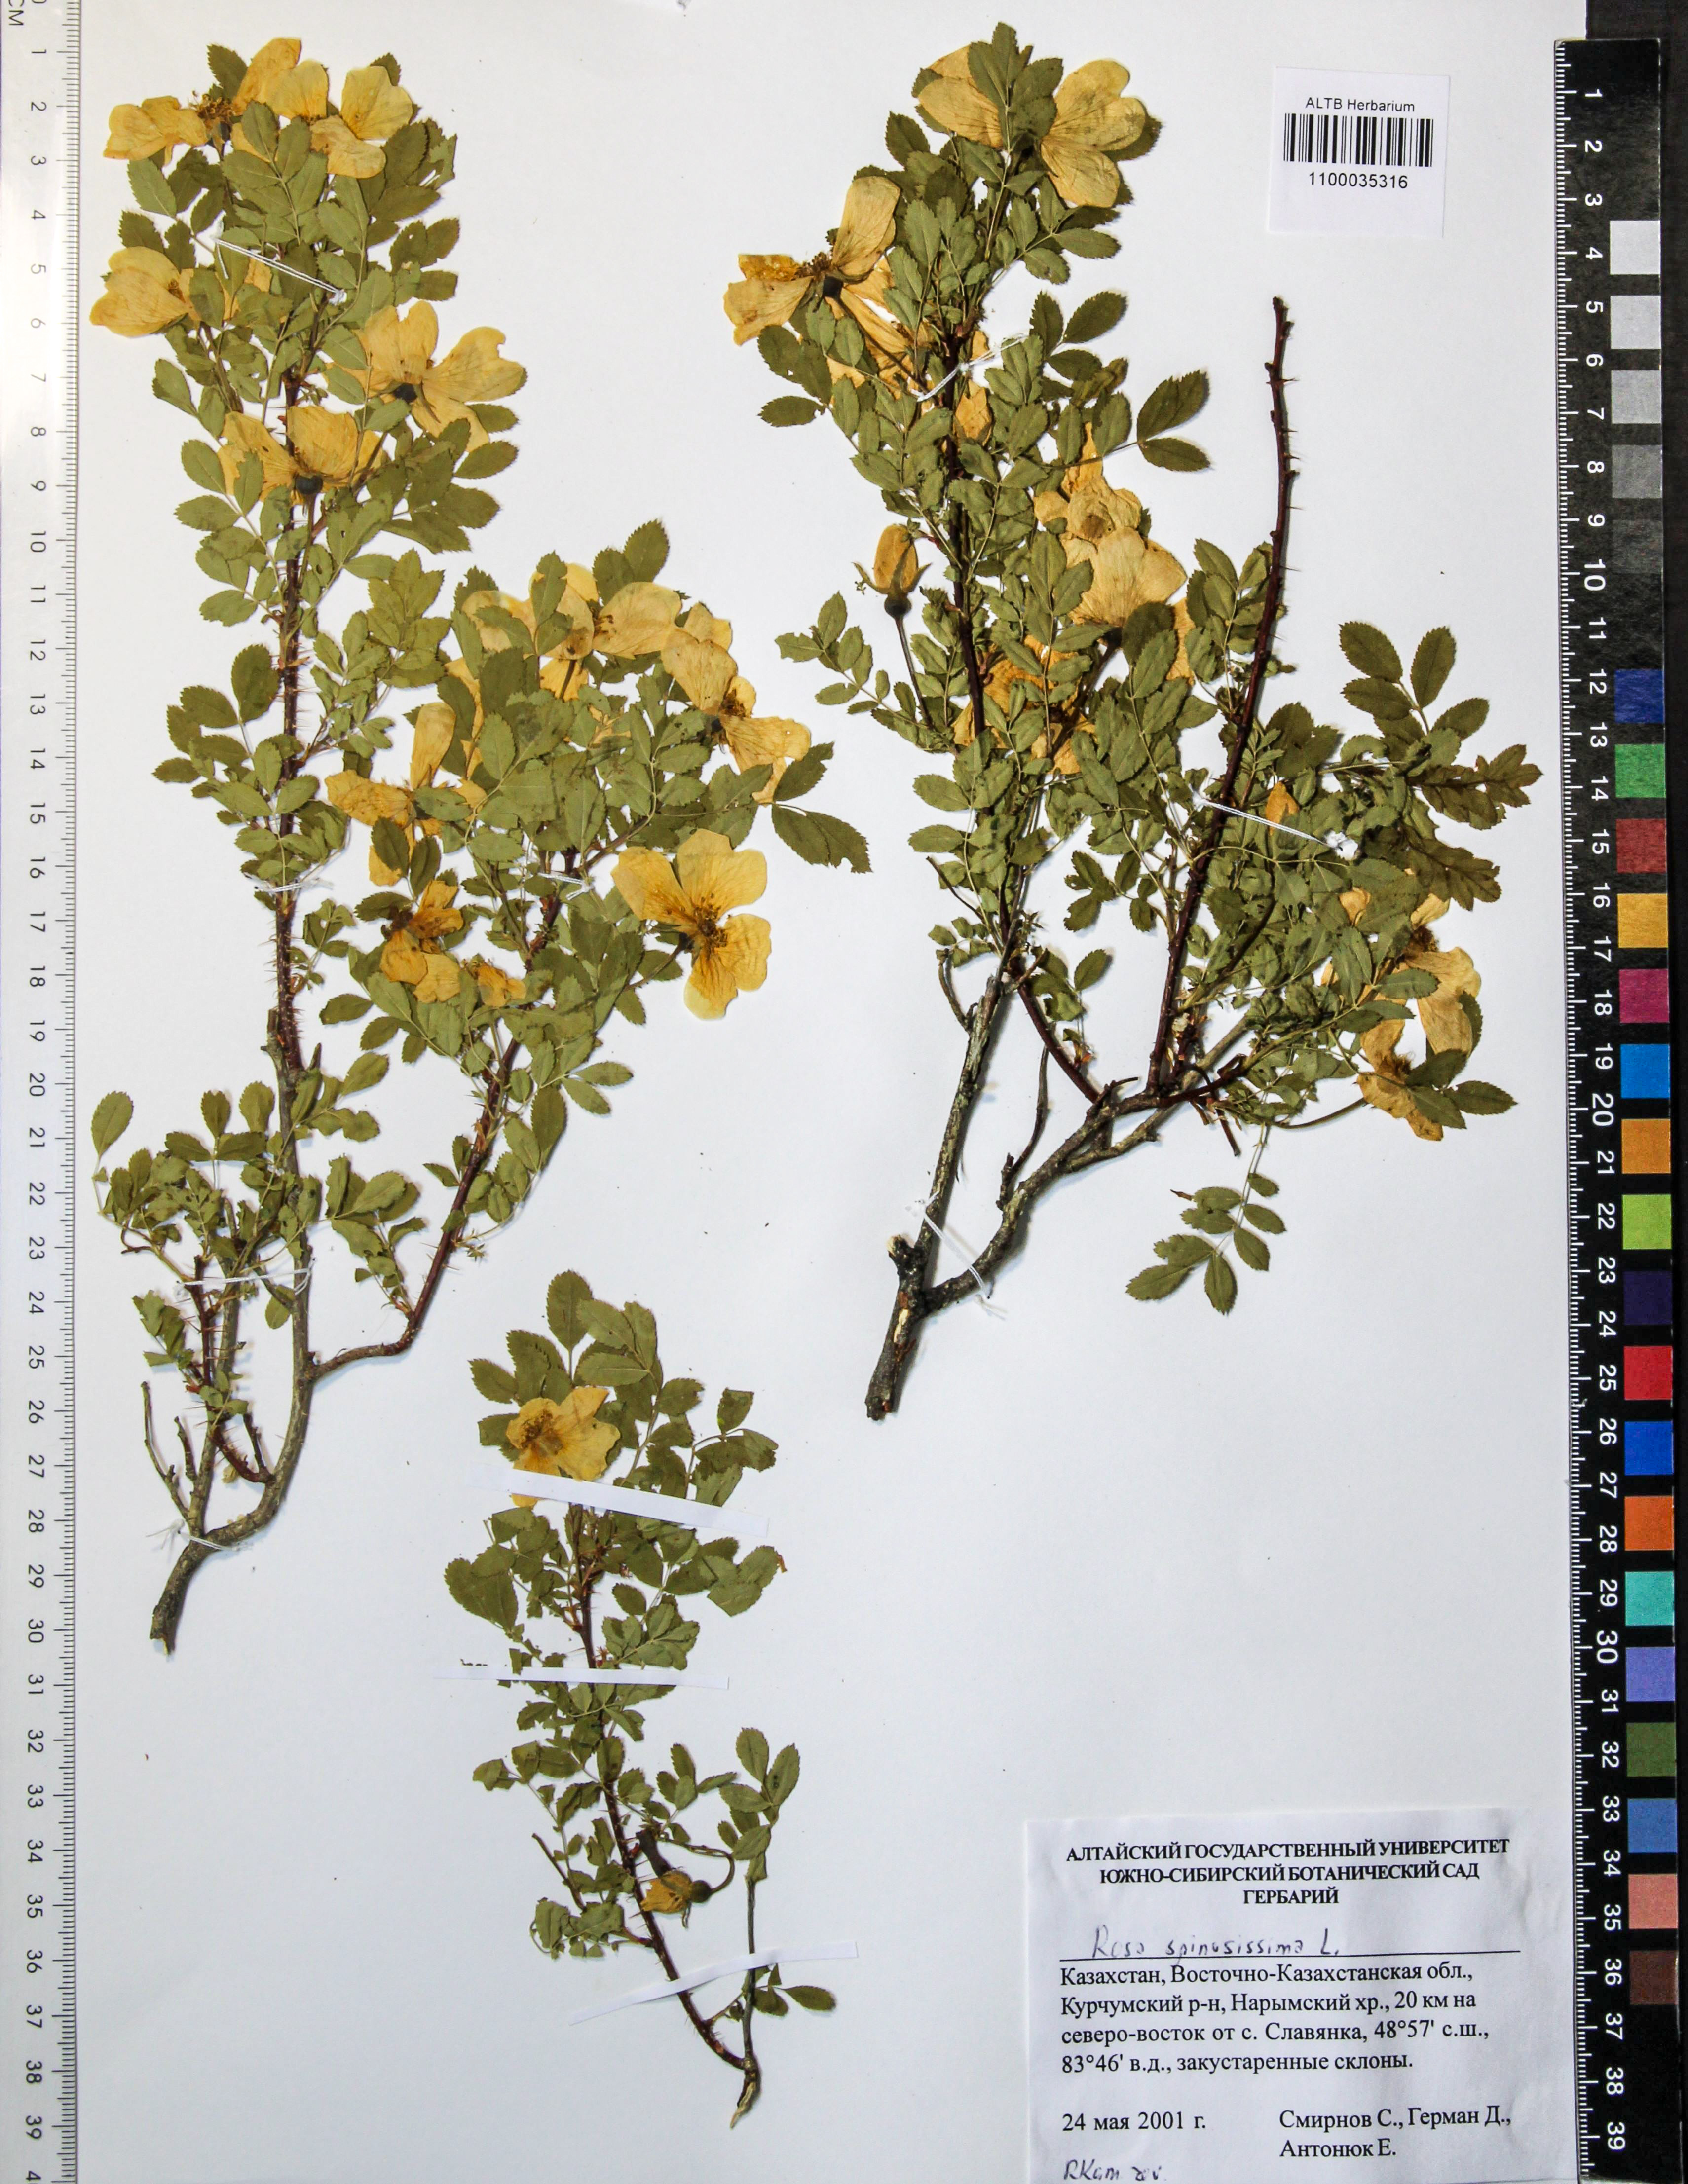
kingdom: Plantae
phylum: Tracheophyta
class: Magnoliopsida
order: Rosales
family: Rosaceae
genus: Rosa
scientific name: Rosa spinosissima
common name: Burnet rose
